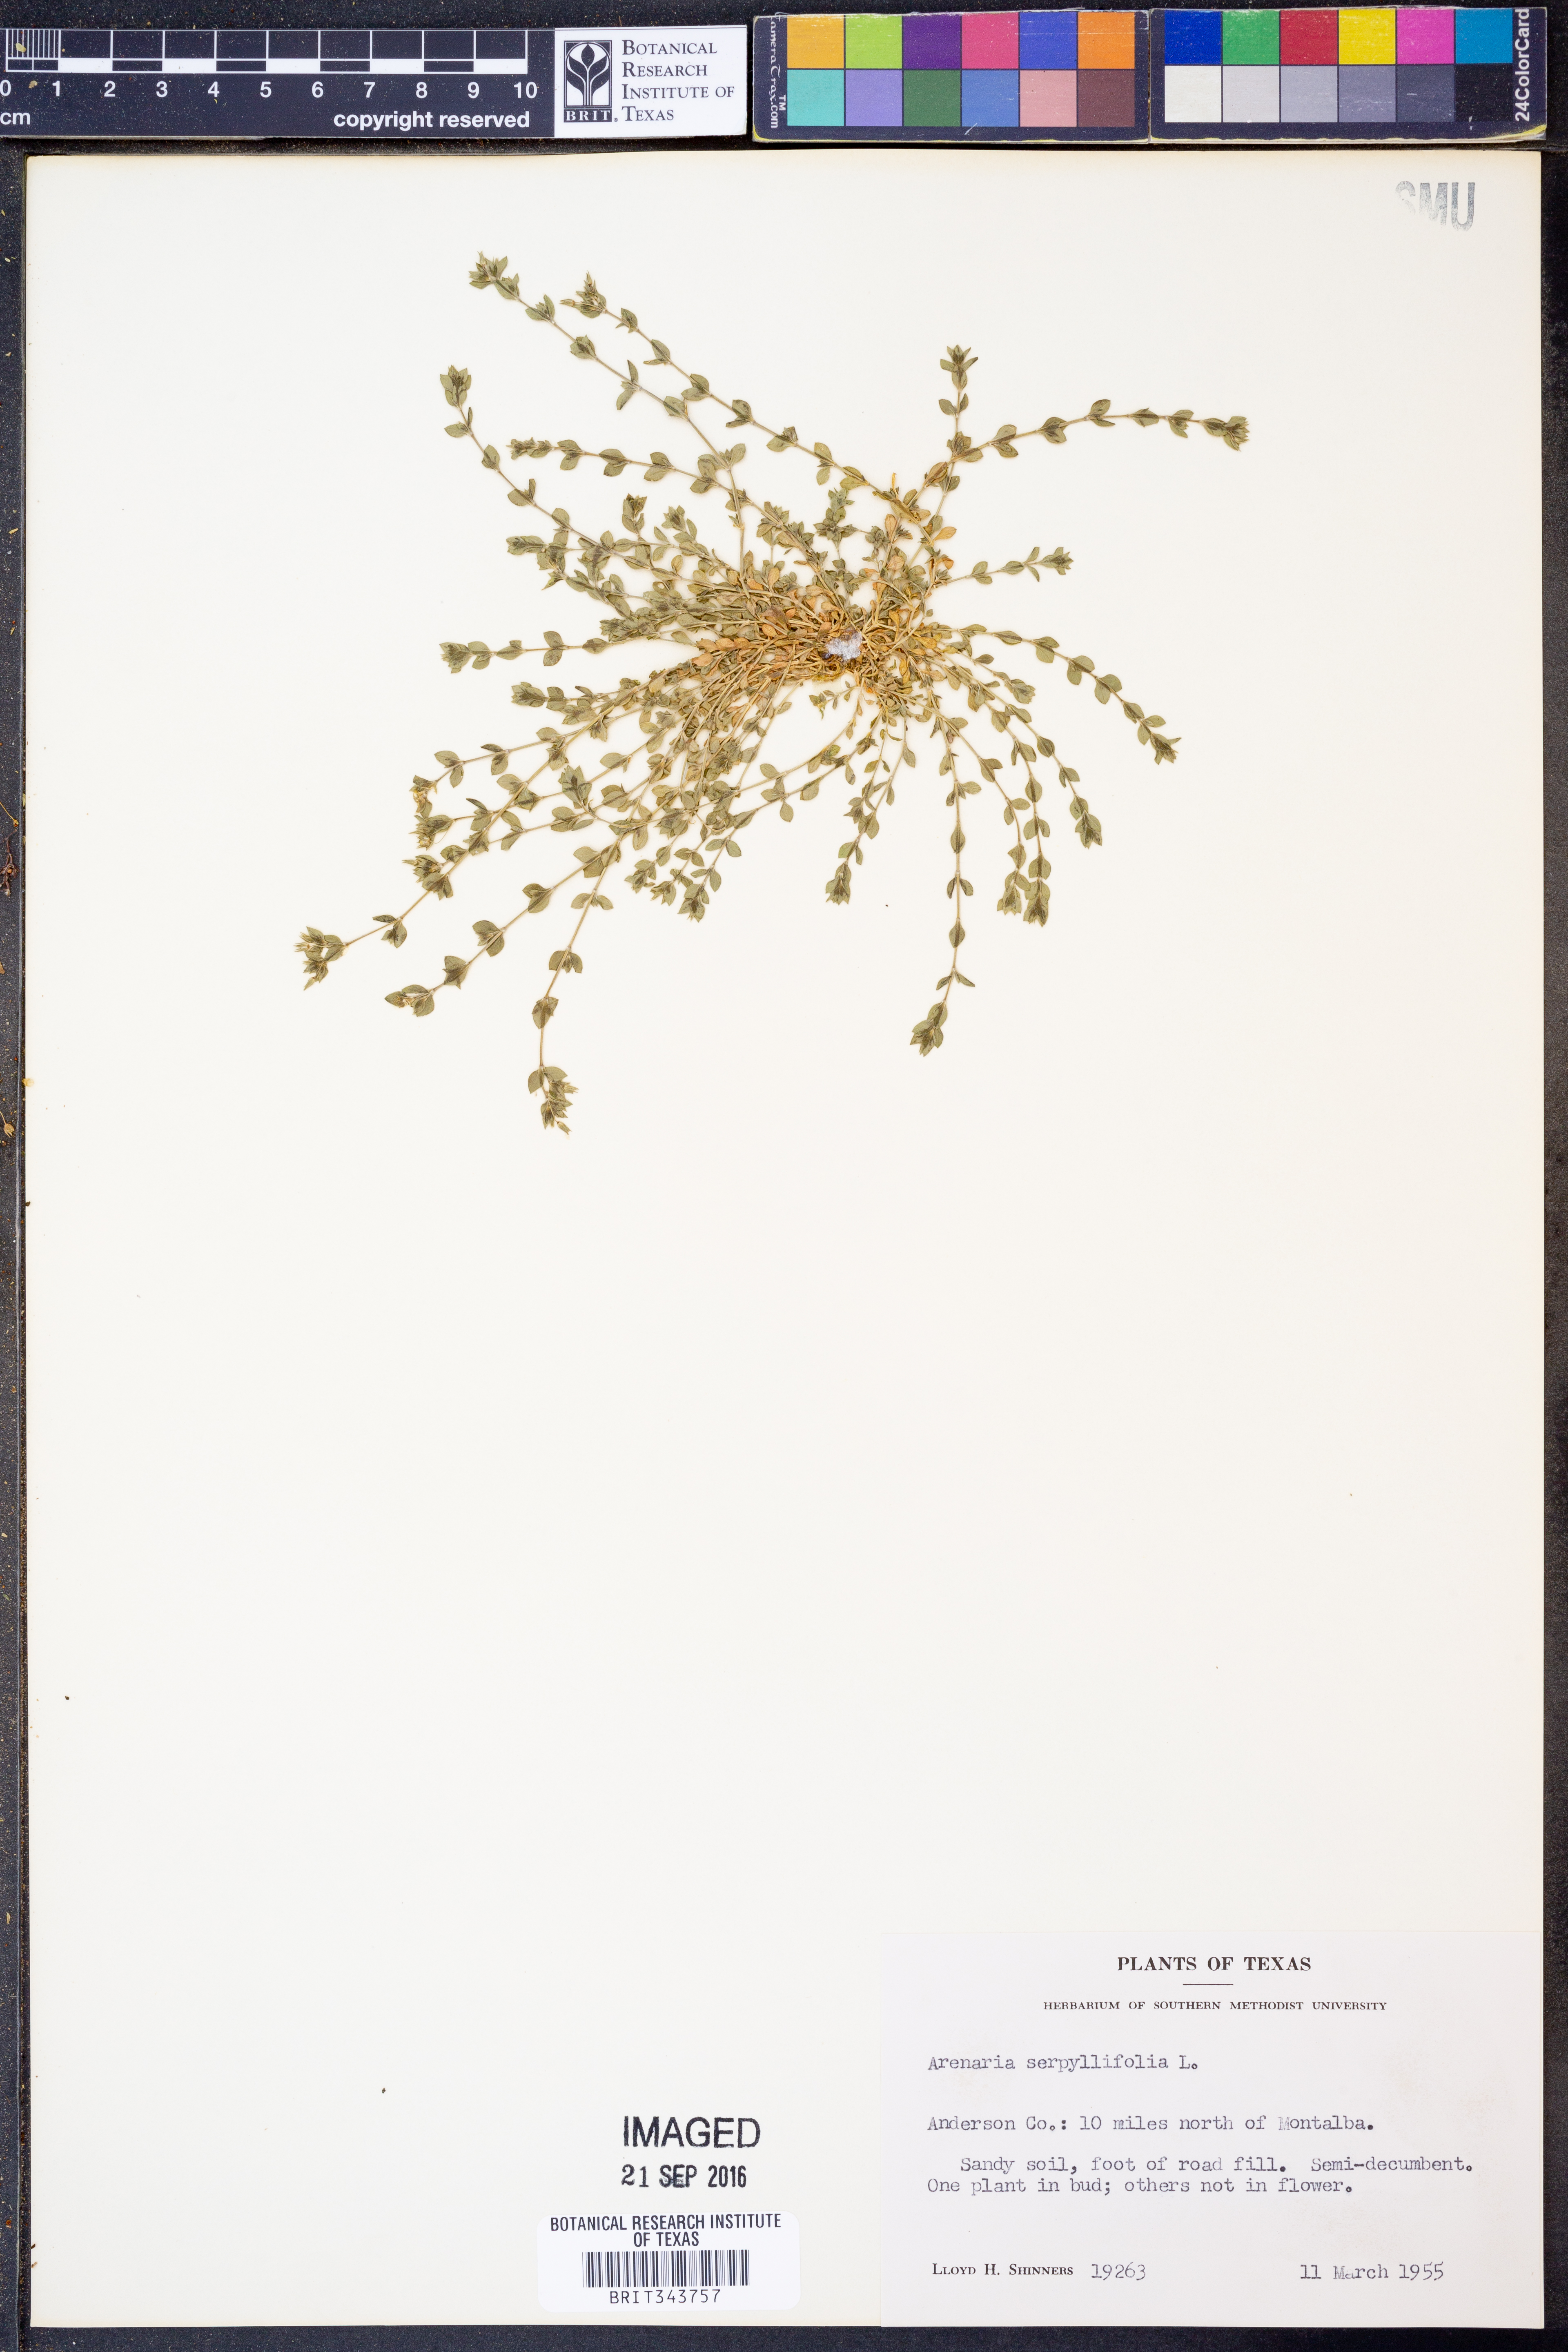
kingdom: Plantae
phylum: Tracheophyta
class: Magnoliopsida
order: Caryophyllales
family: Caryophyllaceae
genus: Arenaria
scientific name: Arenaria serpyllifolia
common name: Thyme-leaved sandwort
